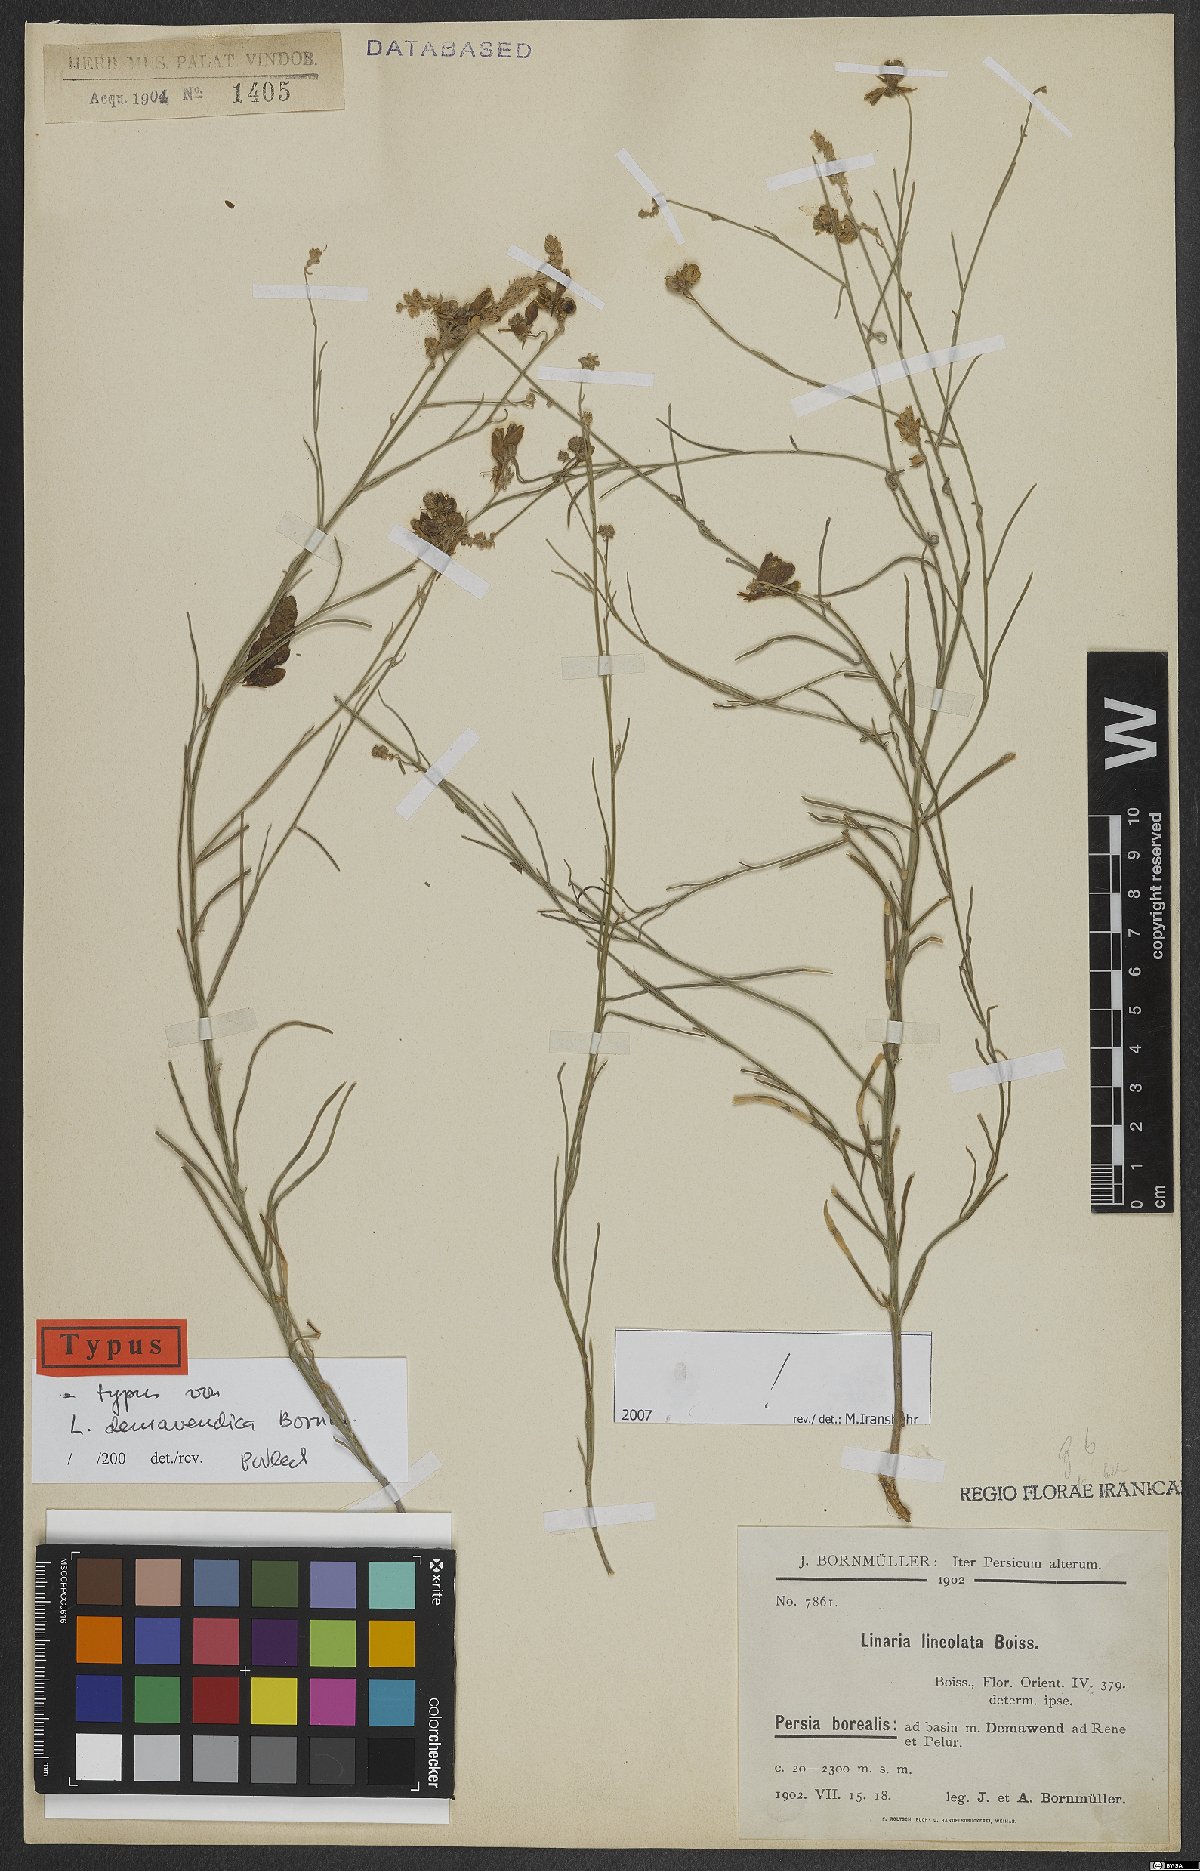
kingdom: Plantae
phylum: Tracheophyta
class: Magnoliopsida
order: Lamiales
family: Plantaginaceae
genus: Linaria
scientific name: Linaria lineolata
